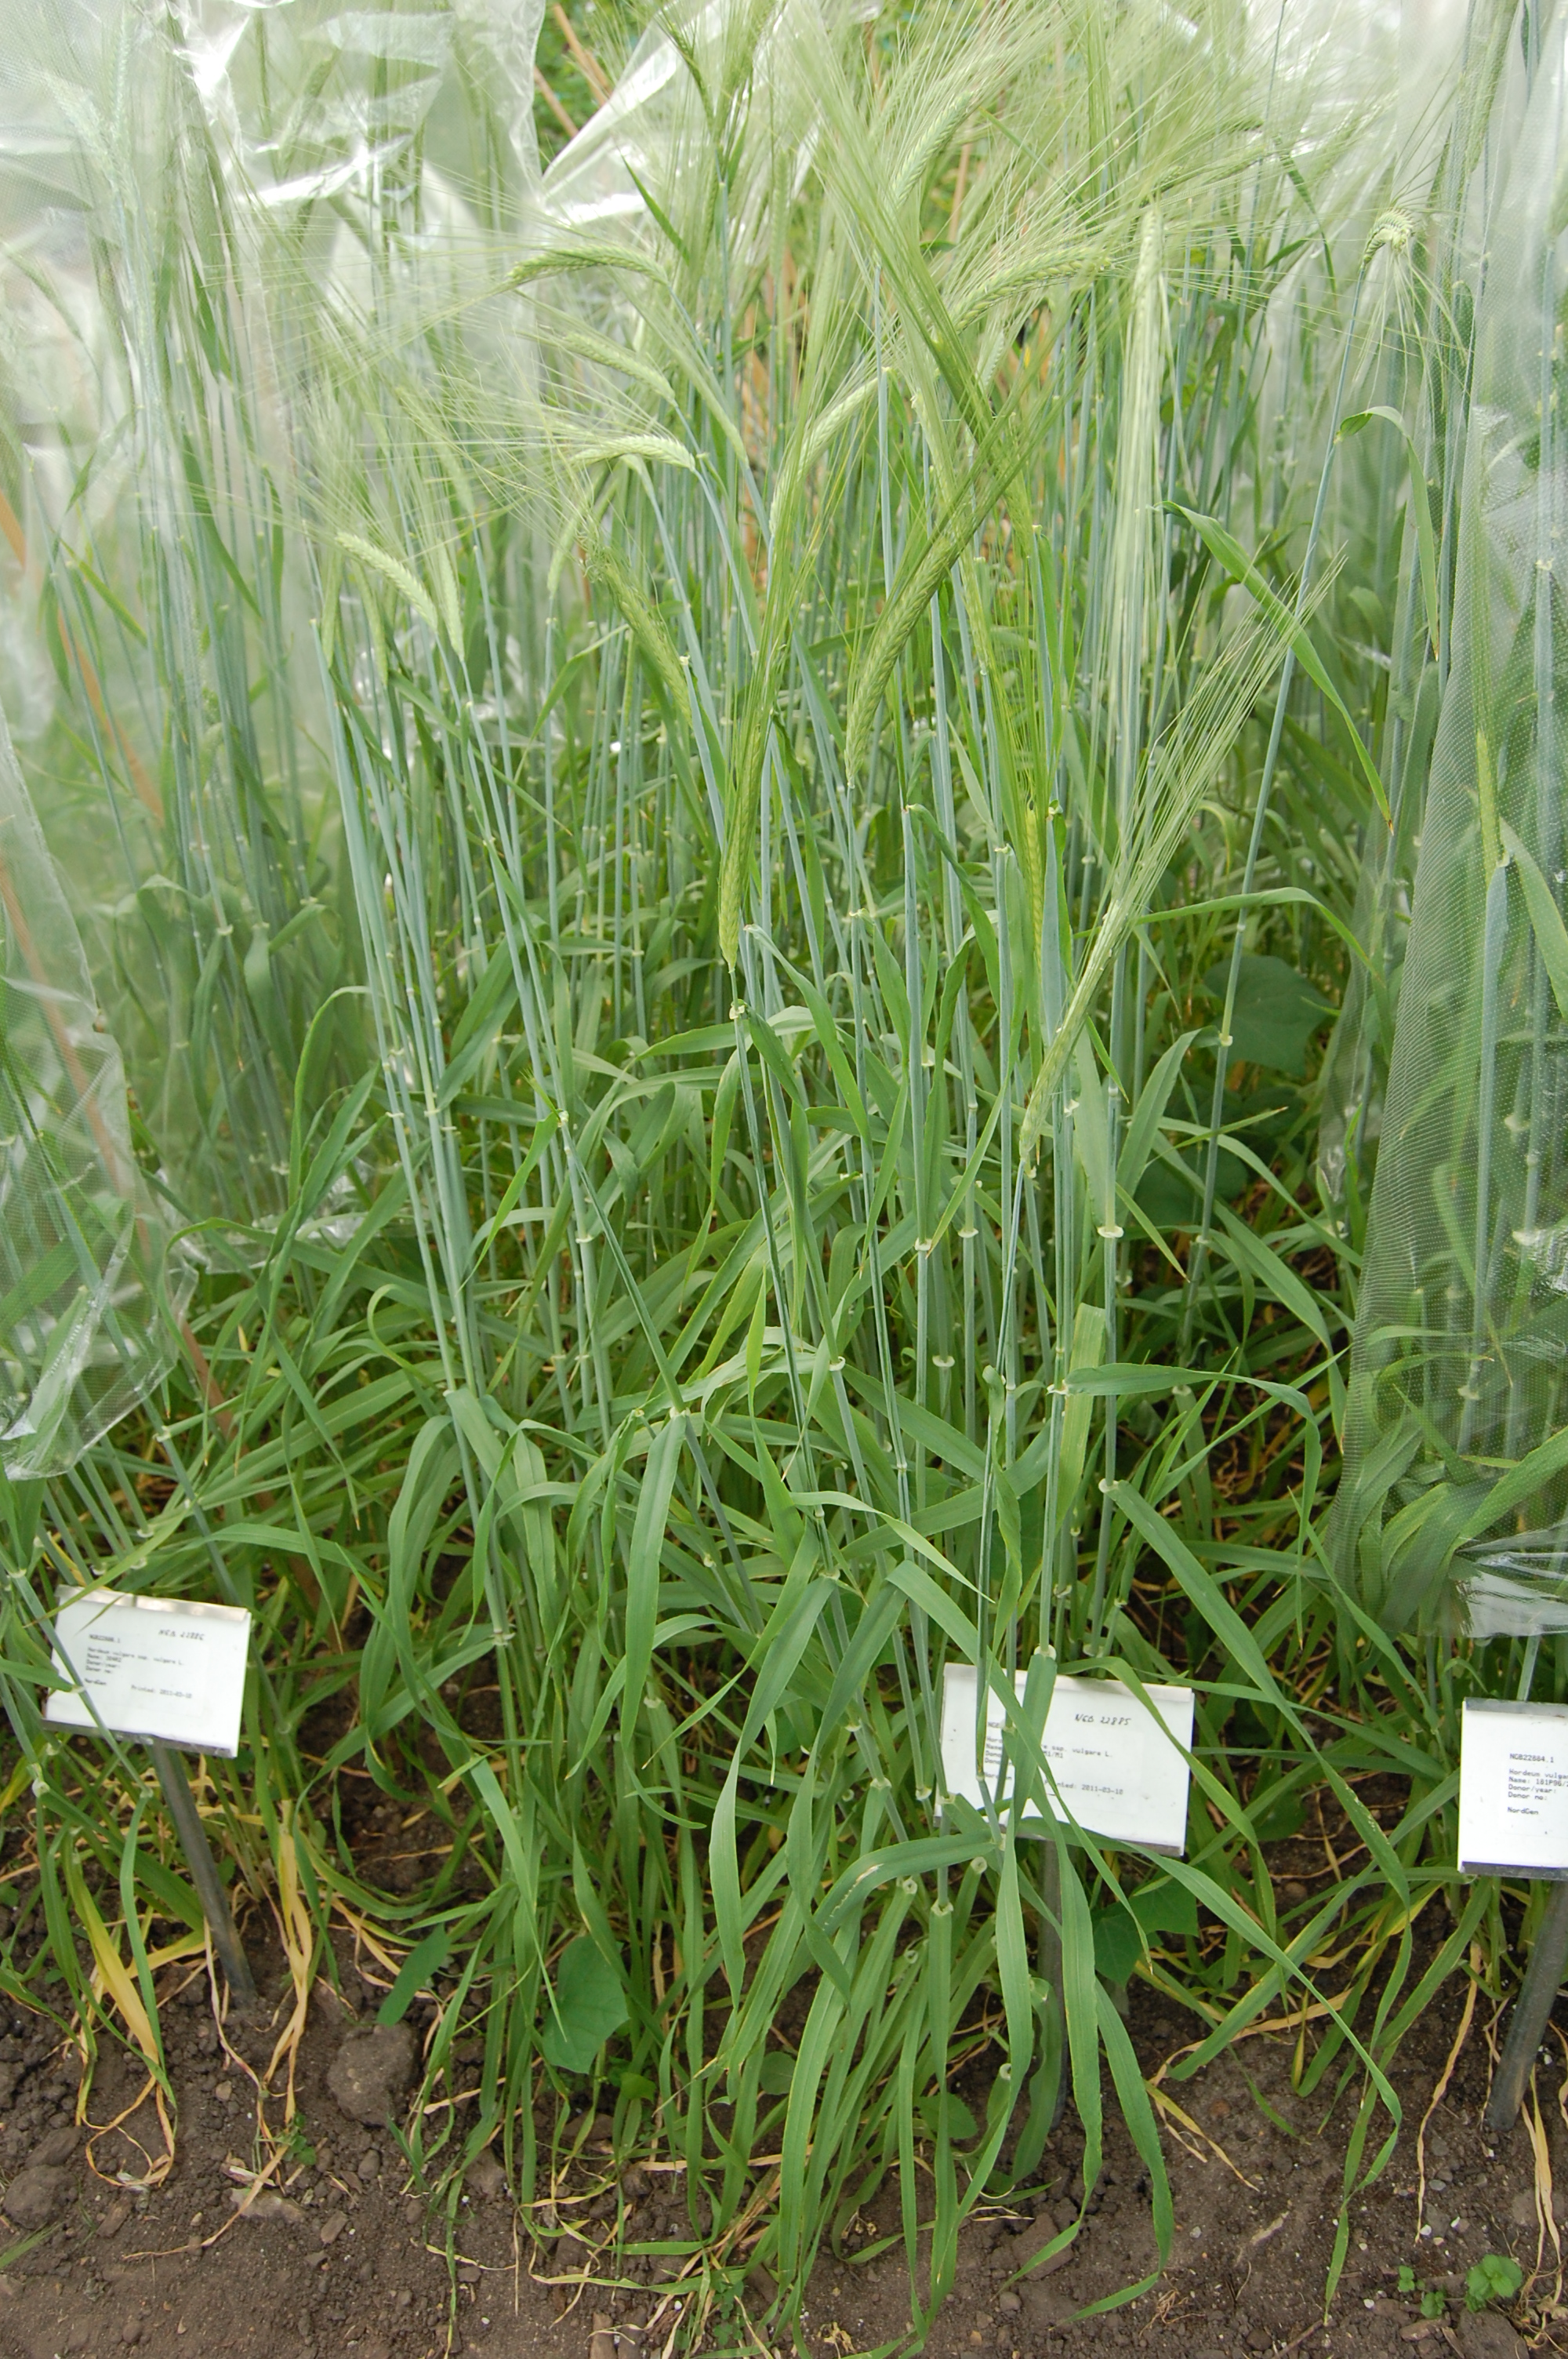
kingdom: Plantae
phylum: Tracheophyta
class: Liliopsida
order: Poales
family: Poaceae
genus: Hordeum
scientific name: Hordeum vulgare
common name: Common barley
